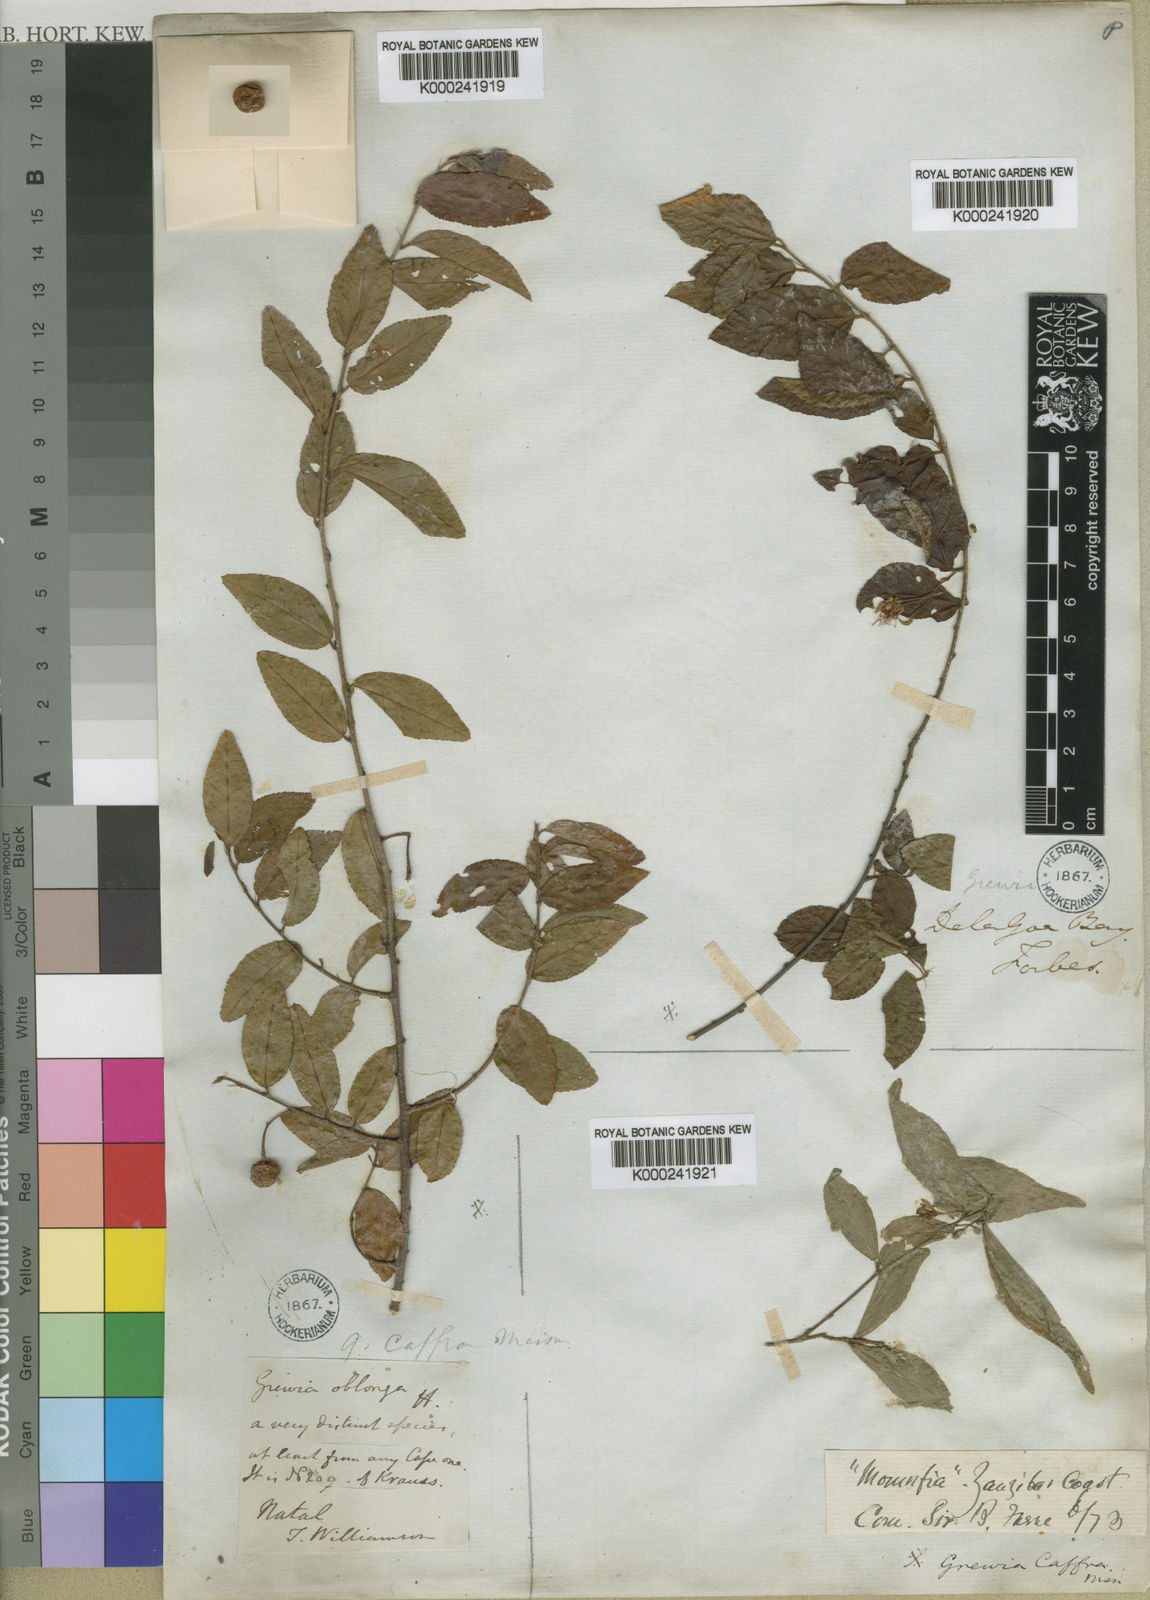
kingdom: Plantae
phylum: Tracheophyta
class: Magnoliopsida
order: Malvales
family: Malvaceae
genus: Grewia
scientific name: Grewia caffra
